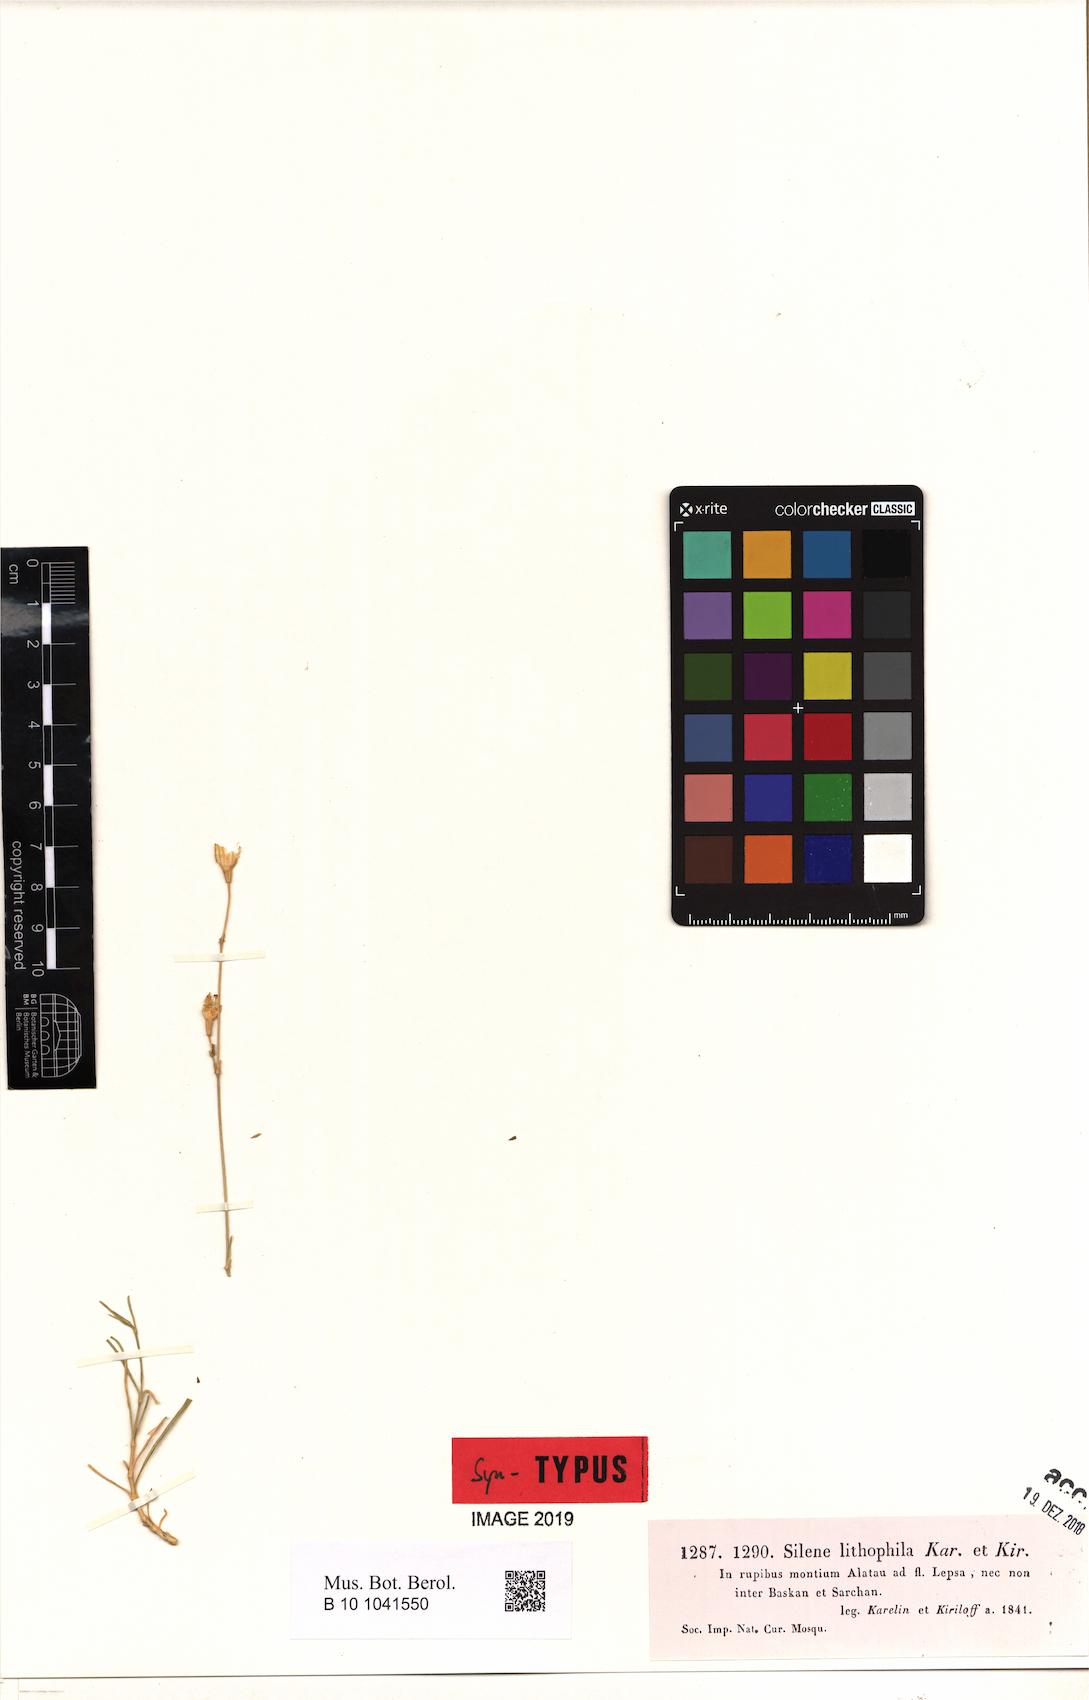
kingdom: Plantae
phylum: Tracheophyta
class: Magnoliopsida
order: Caryophyllales
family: Caryophyllaceae
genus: Silene
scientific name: Silene lithophila
